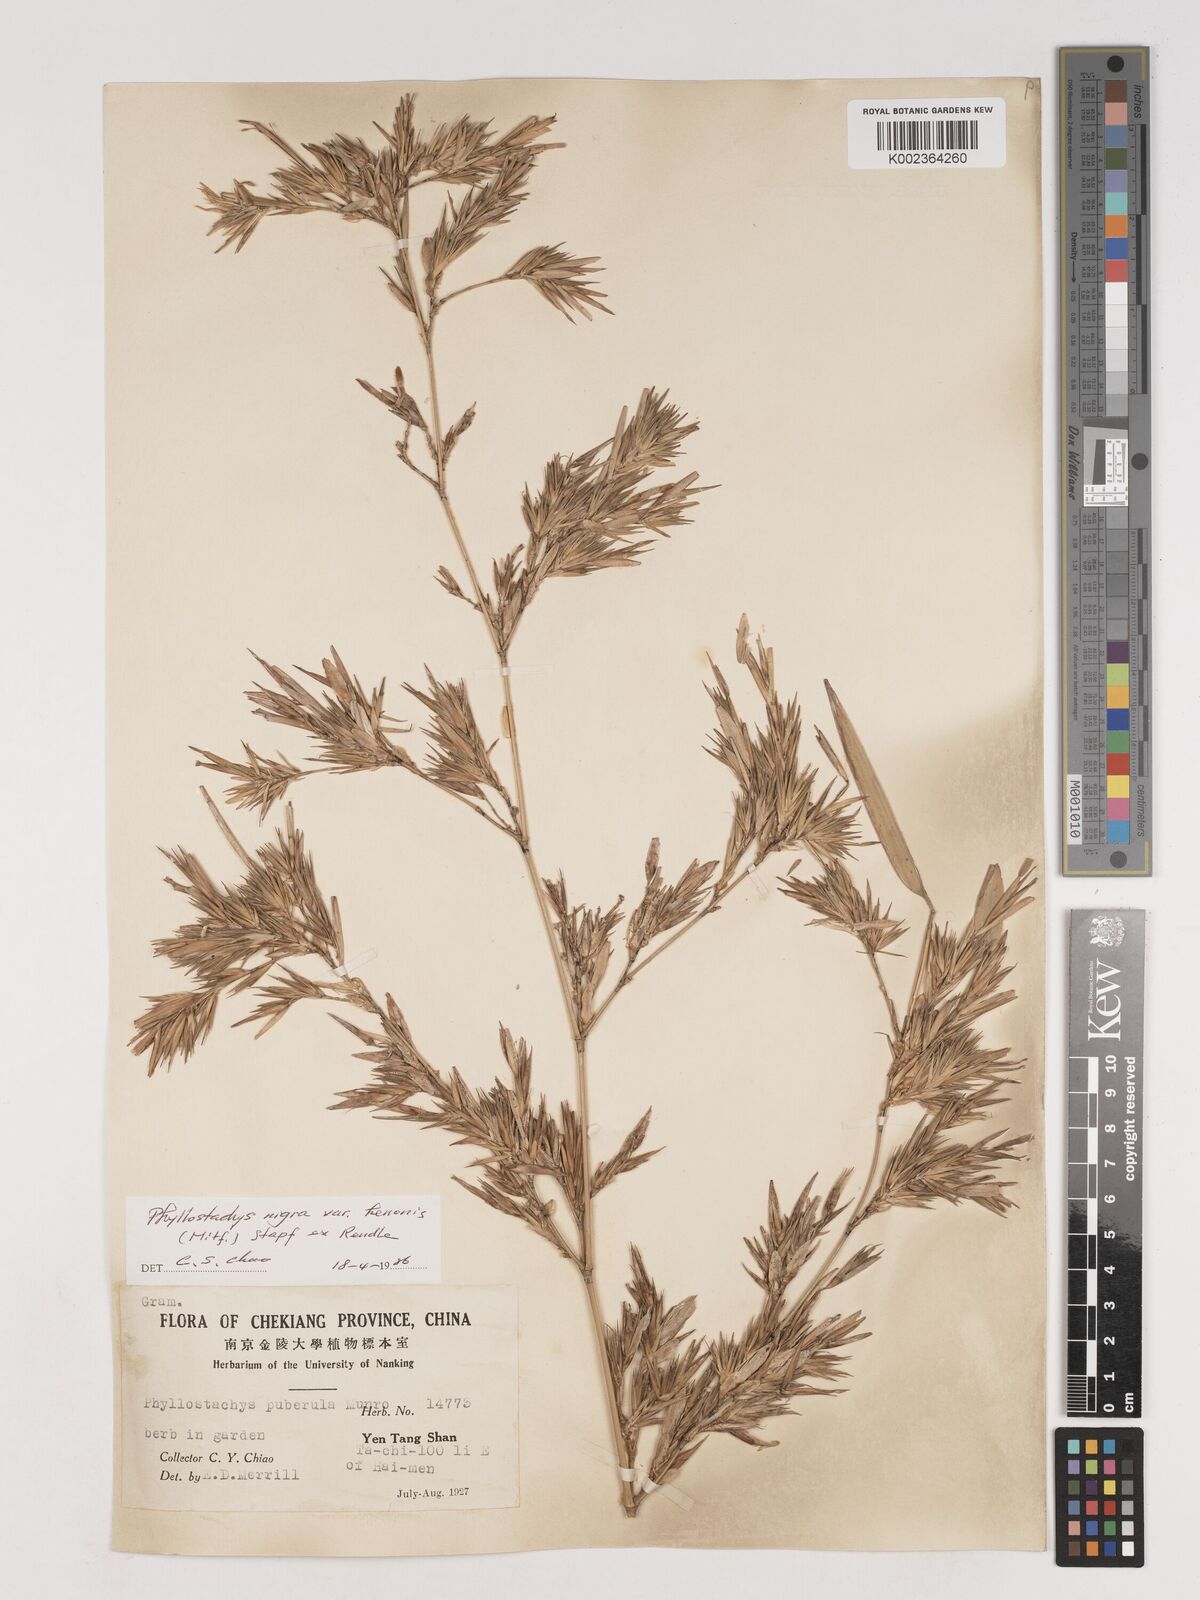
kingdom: Plantae
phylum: Tracheophyta
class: Liliopsida
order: Poales
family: Poaceae
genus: Phyllostachys
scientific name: Phyllostachys nigra
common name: Black bamboo
